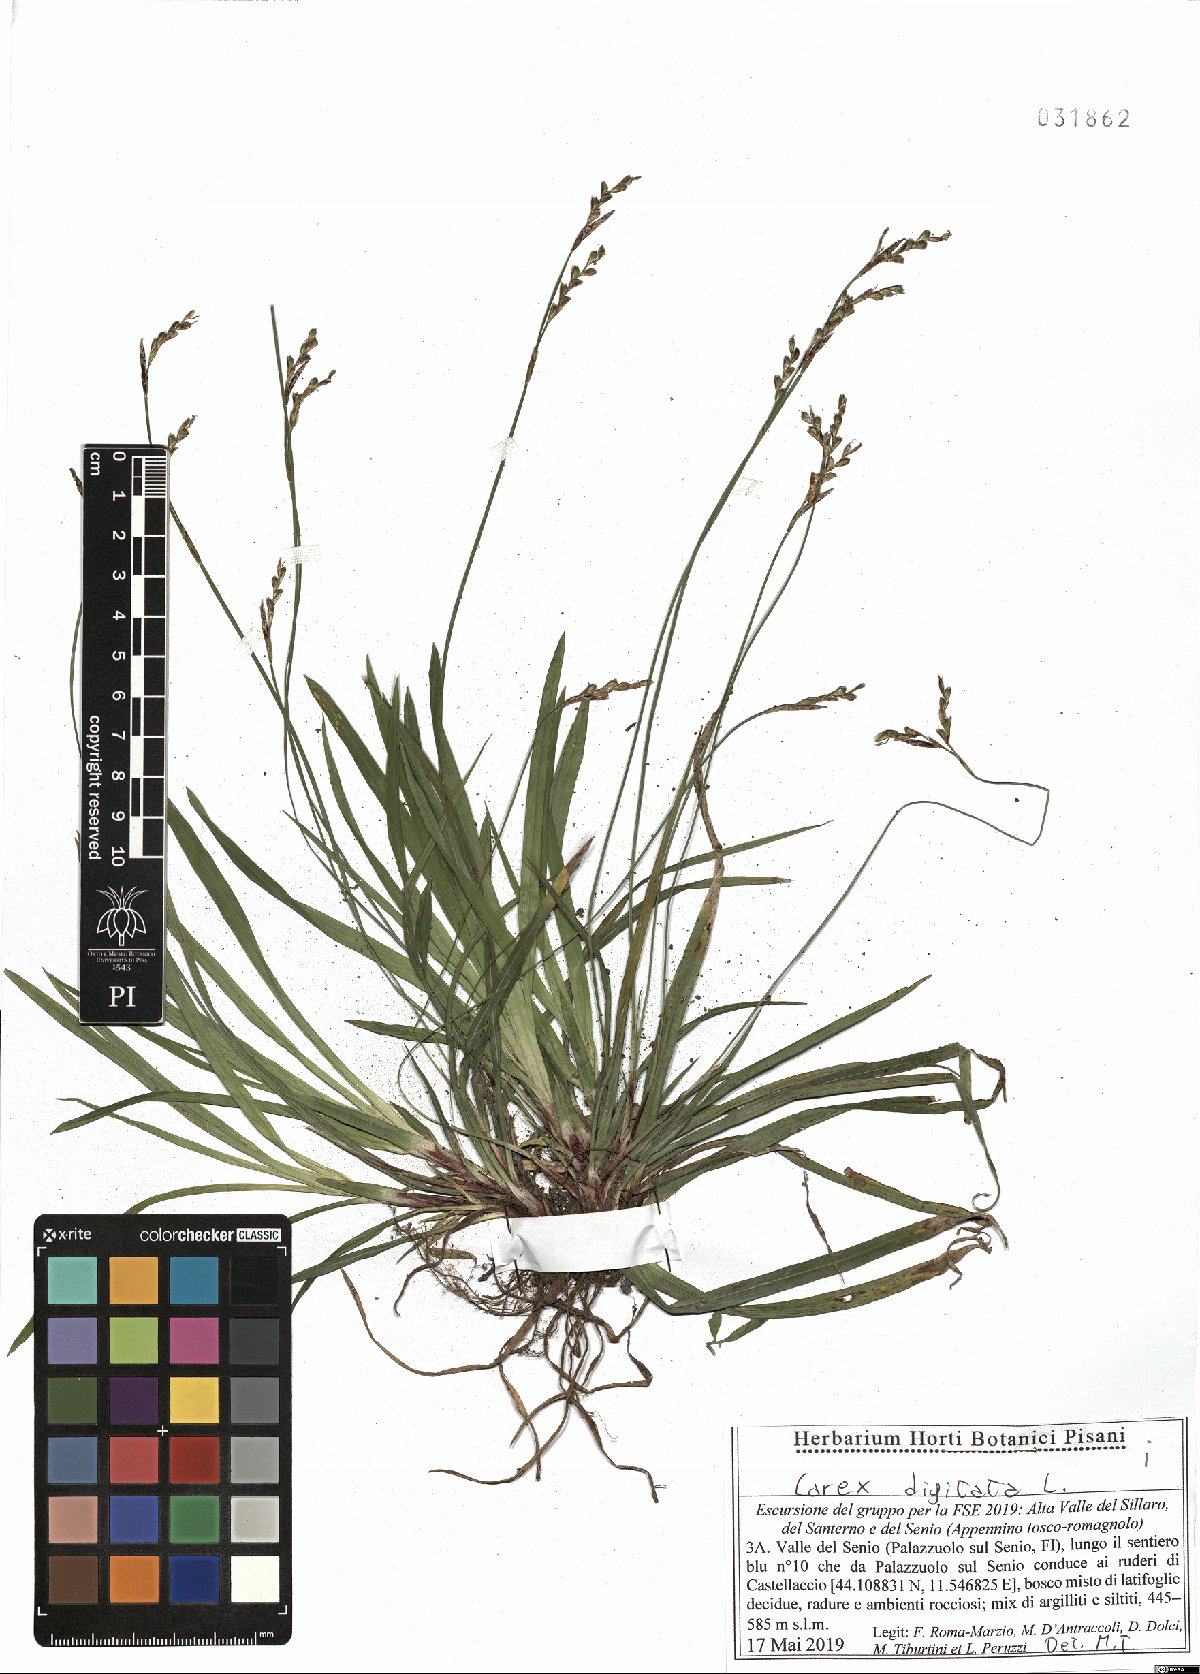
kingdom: Plantae
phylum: Tracheophyta
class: Liliopsida
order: Poales
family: Cyperaceae
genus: Carex
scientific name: Carex digitata
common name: Fingered sedge
